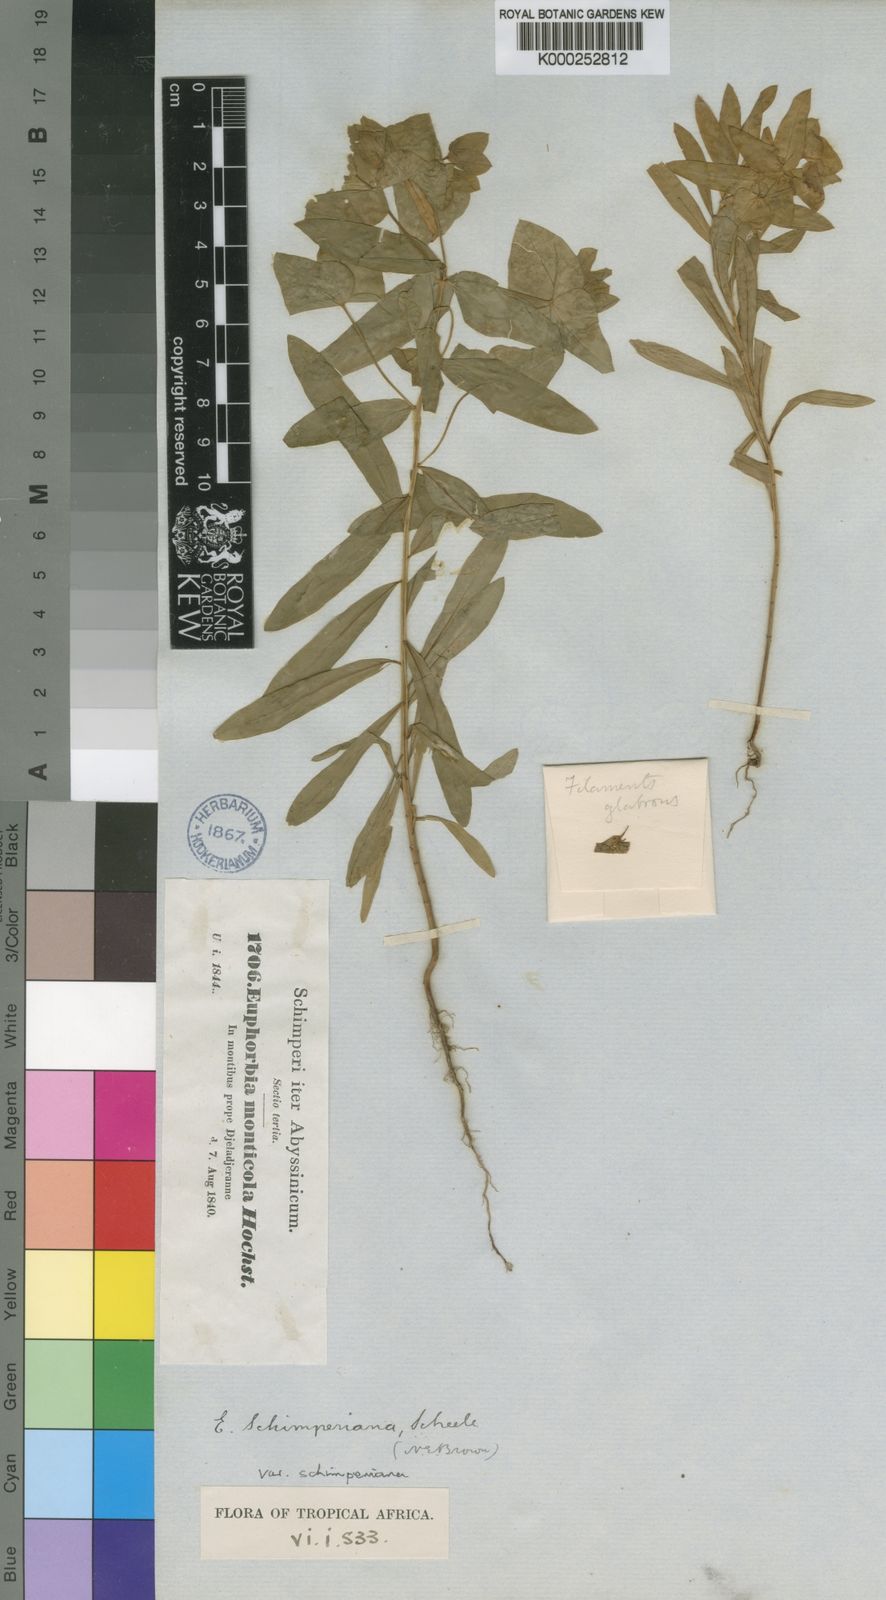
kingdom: Plantae
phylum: Tracheophyta
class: Magnoliopsida
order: Malpighiales
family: Euphorbiaceae
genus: Euphorbia
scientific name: Euphorbia schimperiana
